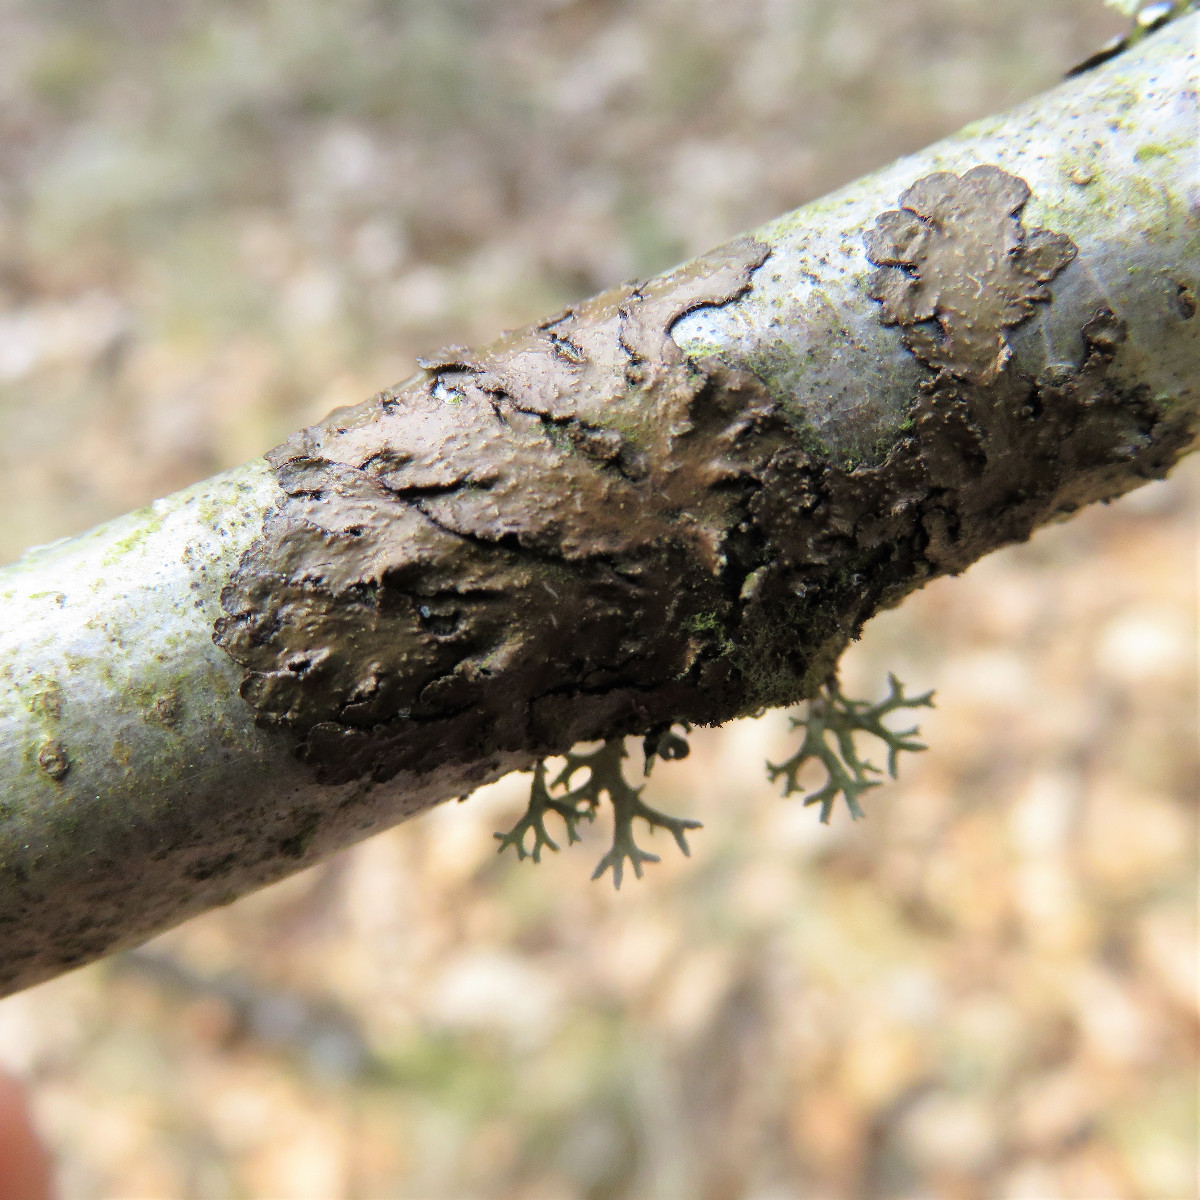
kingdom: Fungi
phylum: Ascomycota
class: Lecanoromycetes
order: Lecanorales
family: Parmeliaceae
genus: Melanelixia
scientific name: Melanelixia subaurifera
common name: guldpudret skållav
